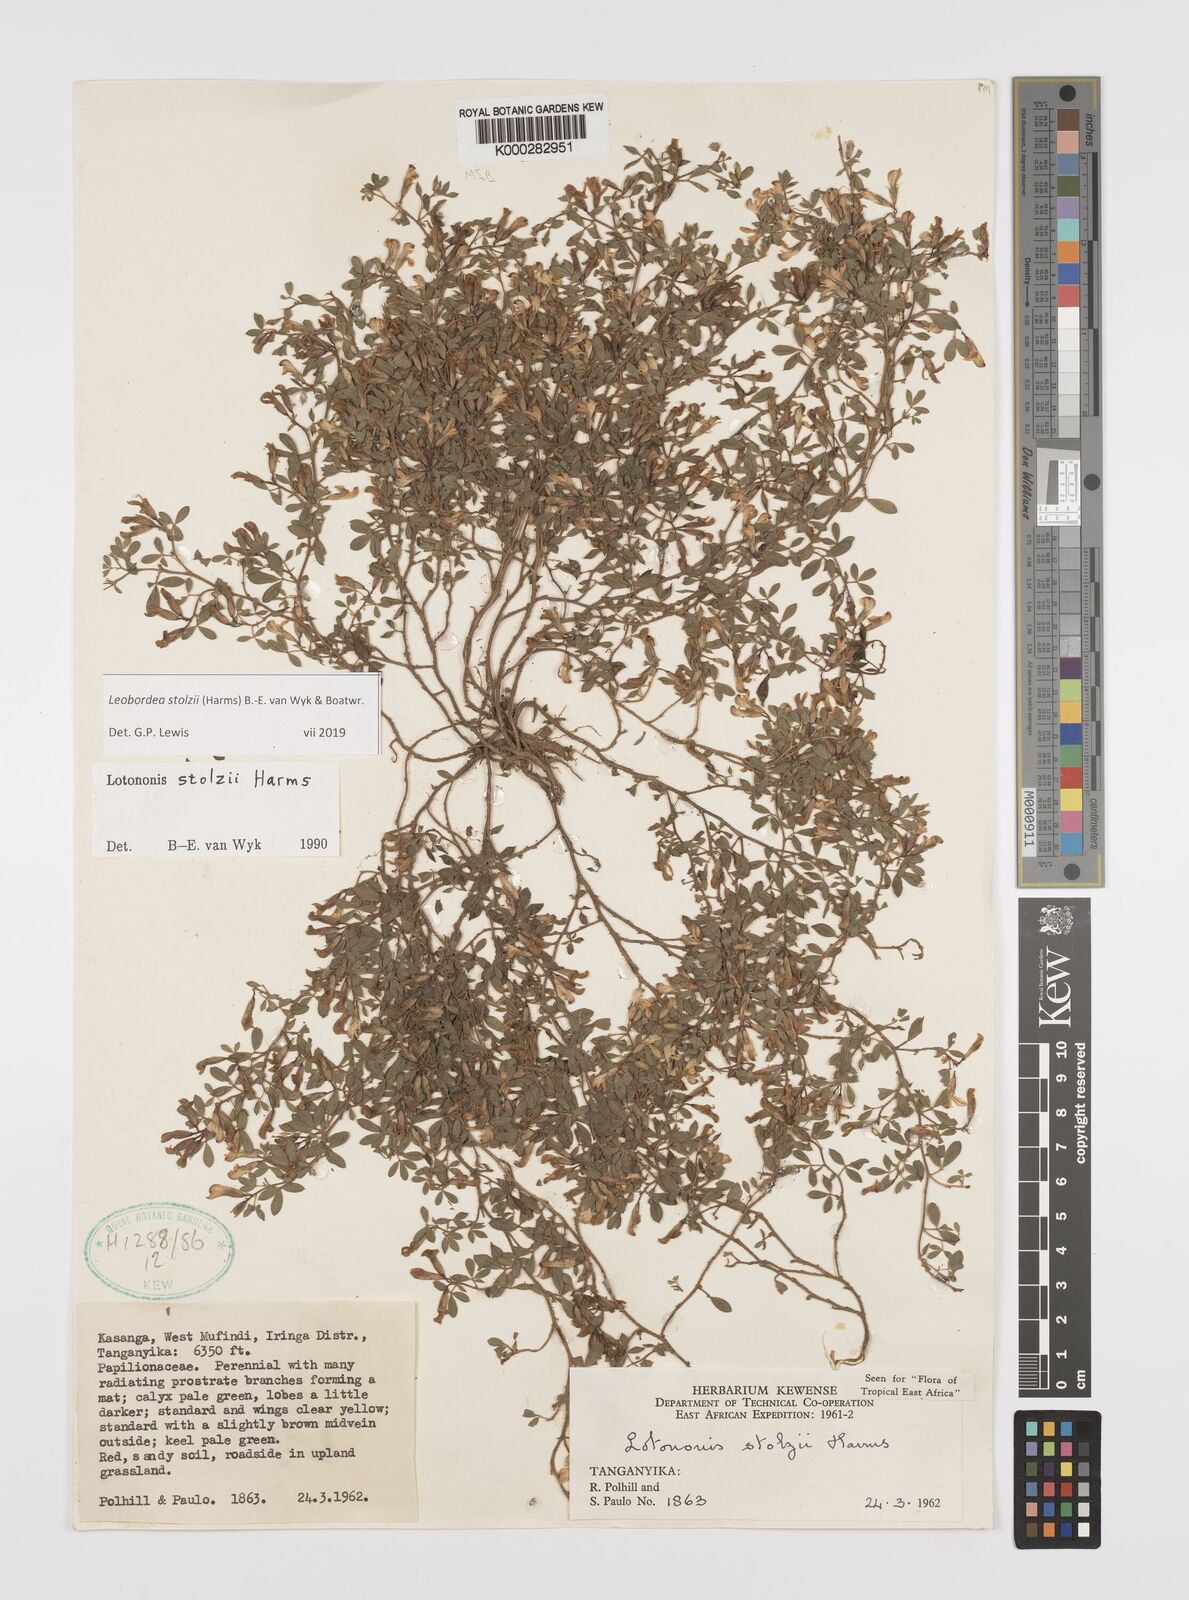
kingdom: Plantae
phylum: Tracheophyta
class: Magnoliopsida
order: Fabales
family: Fabaceae
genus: Leobordea
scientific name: Leobordea stolzii
